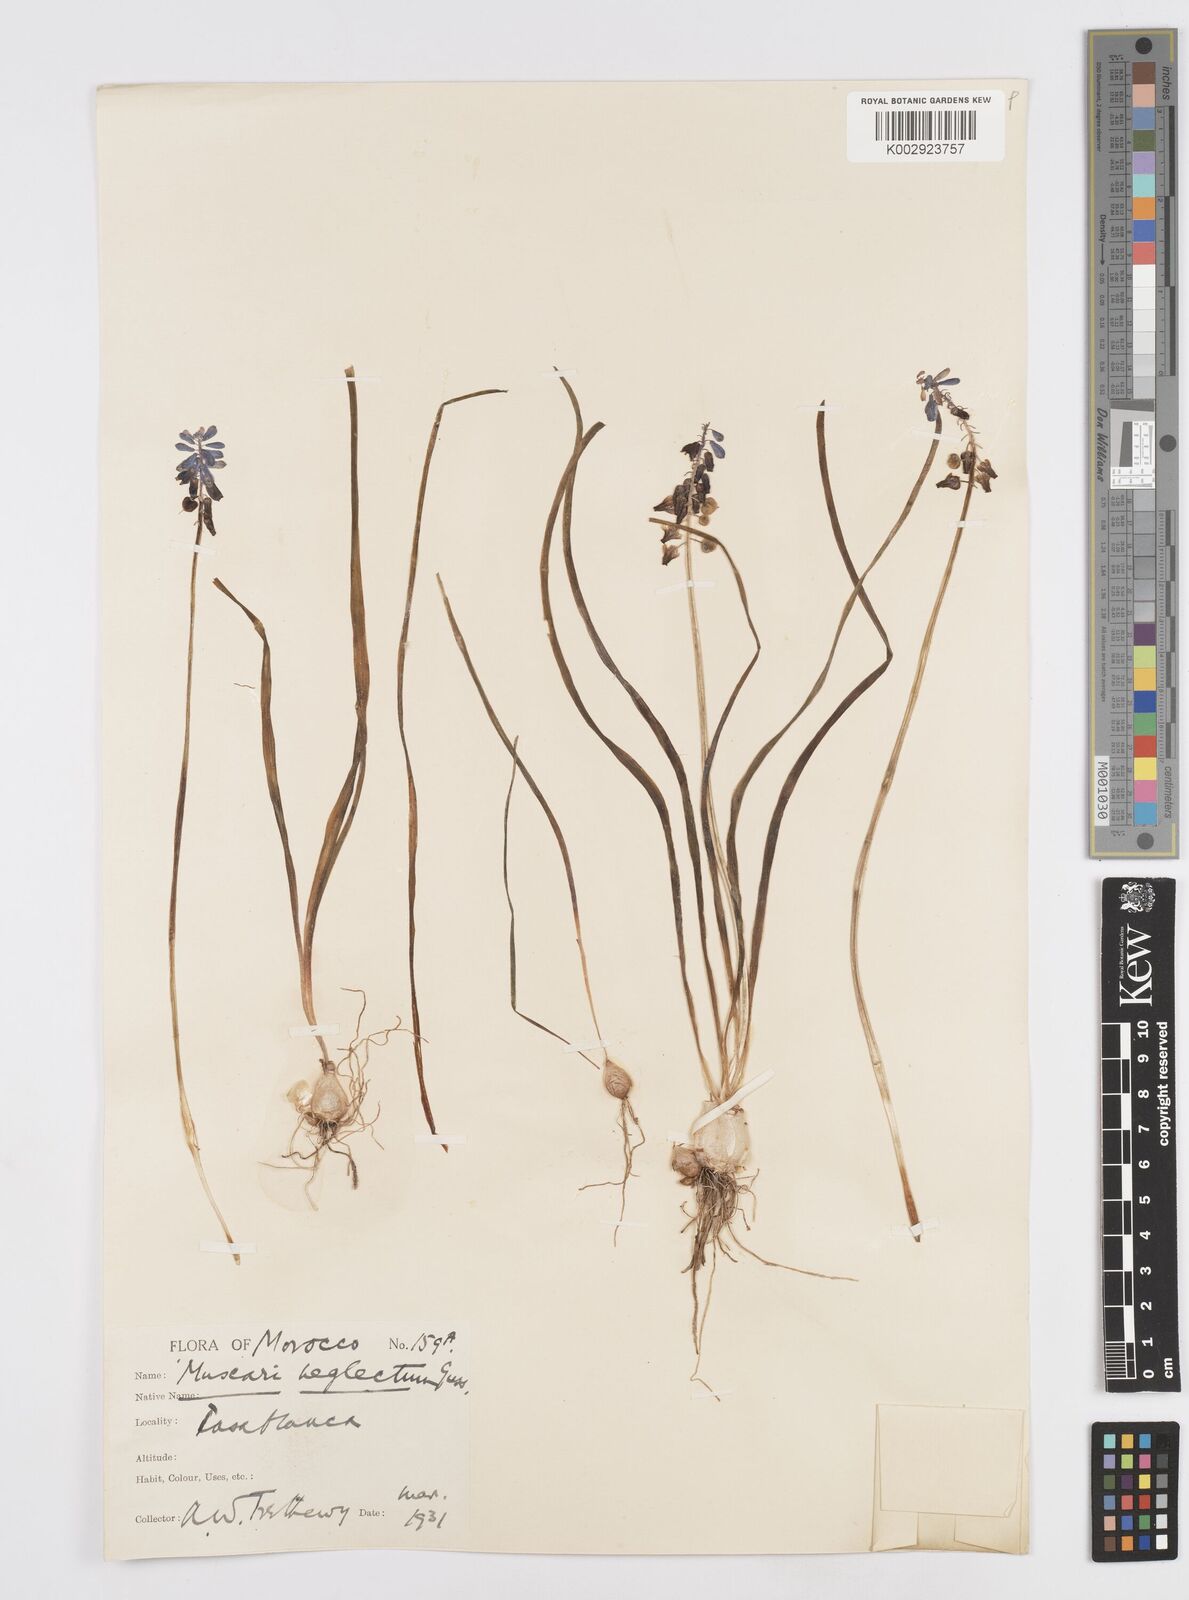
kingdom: Plantae
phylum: Tracheophyta
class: Liliopsida
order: Asparagales
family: Asparagaceae
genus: Muscari
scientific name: Muscari neglectum
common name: Grape-hyacinth
